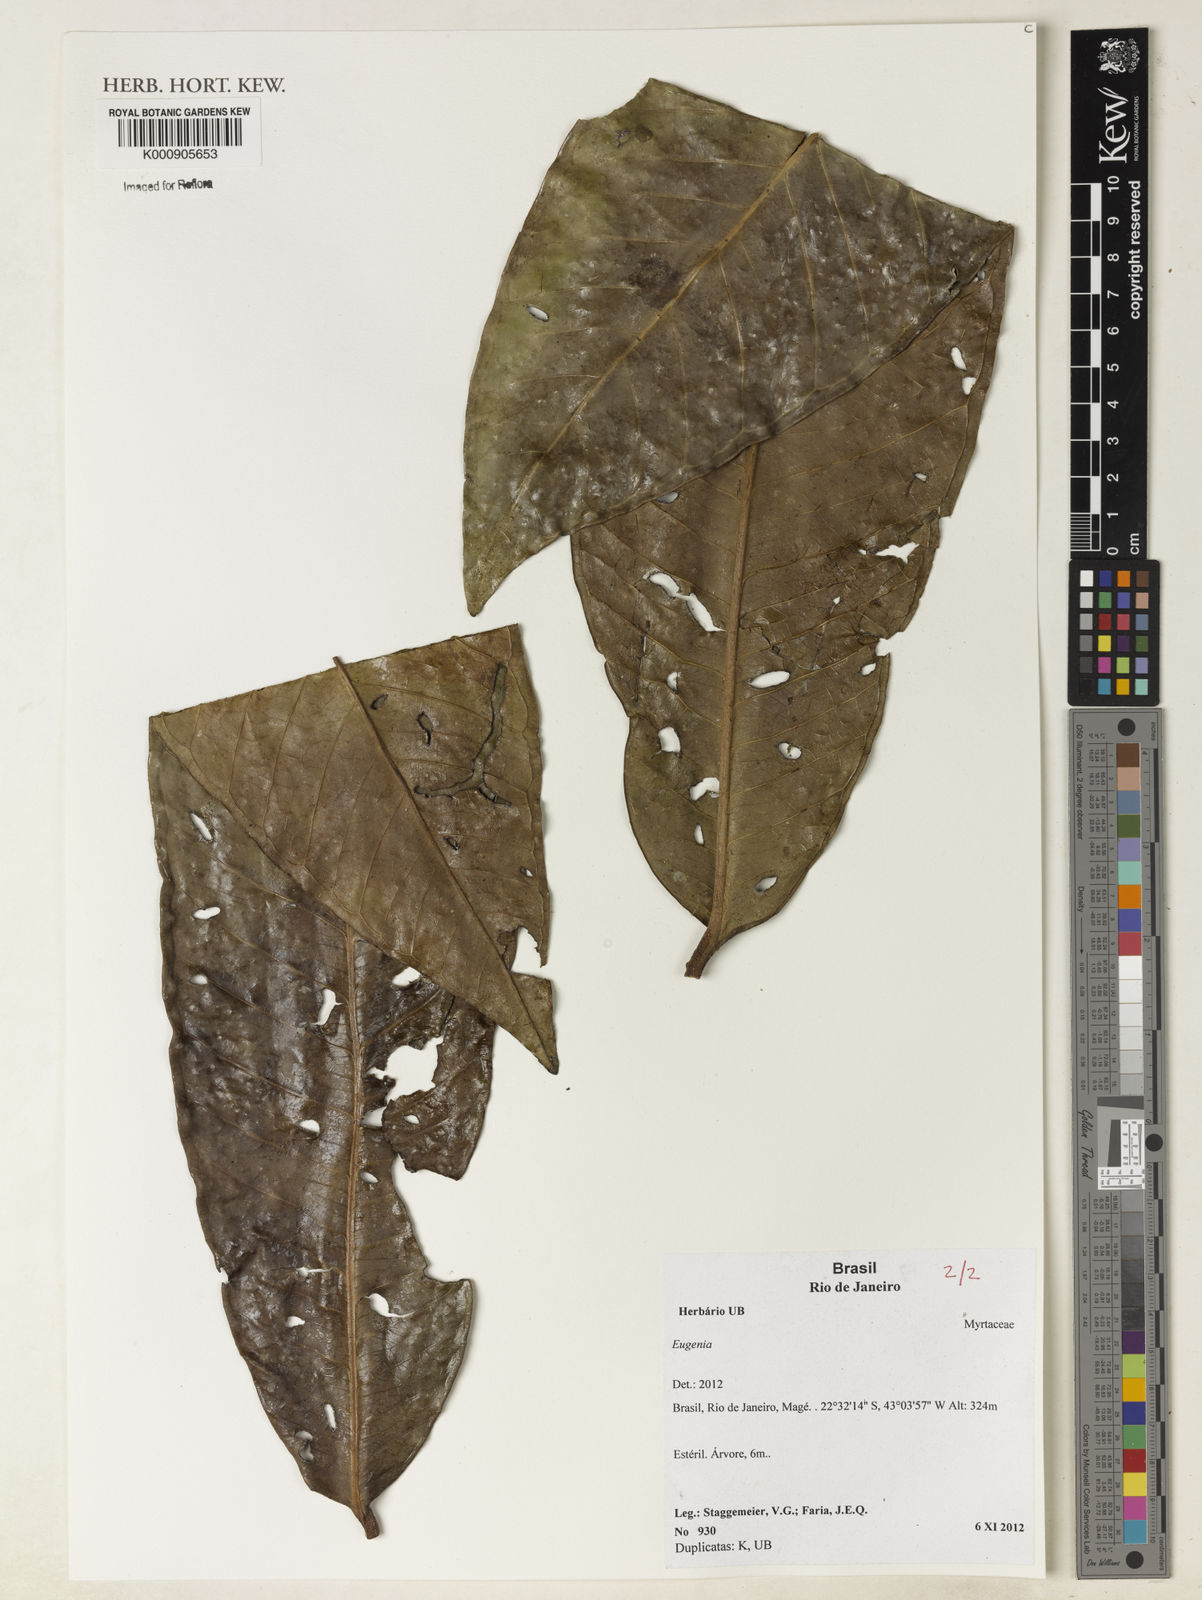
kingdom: Plantae
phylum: Tracheophyta
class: Magnoliopsida
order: Myrtales
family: Myrtaceae
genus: Eugenia
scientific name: Eugenia
